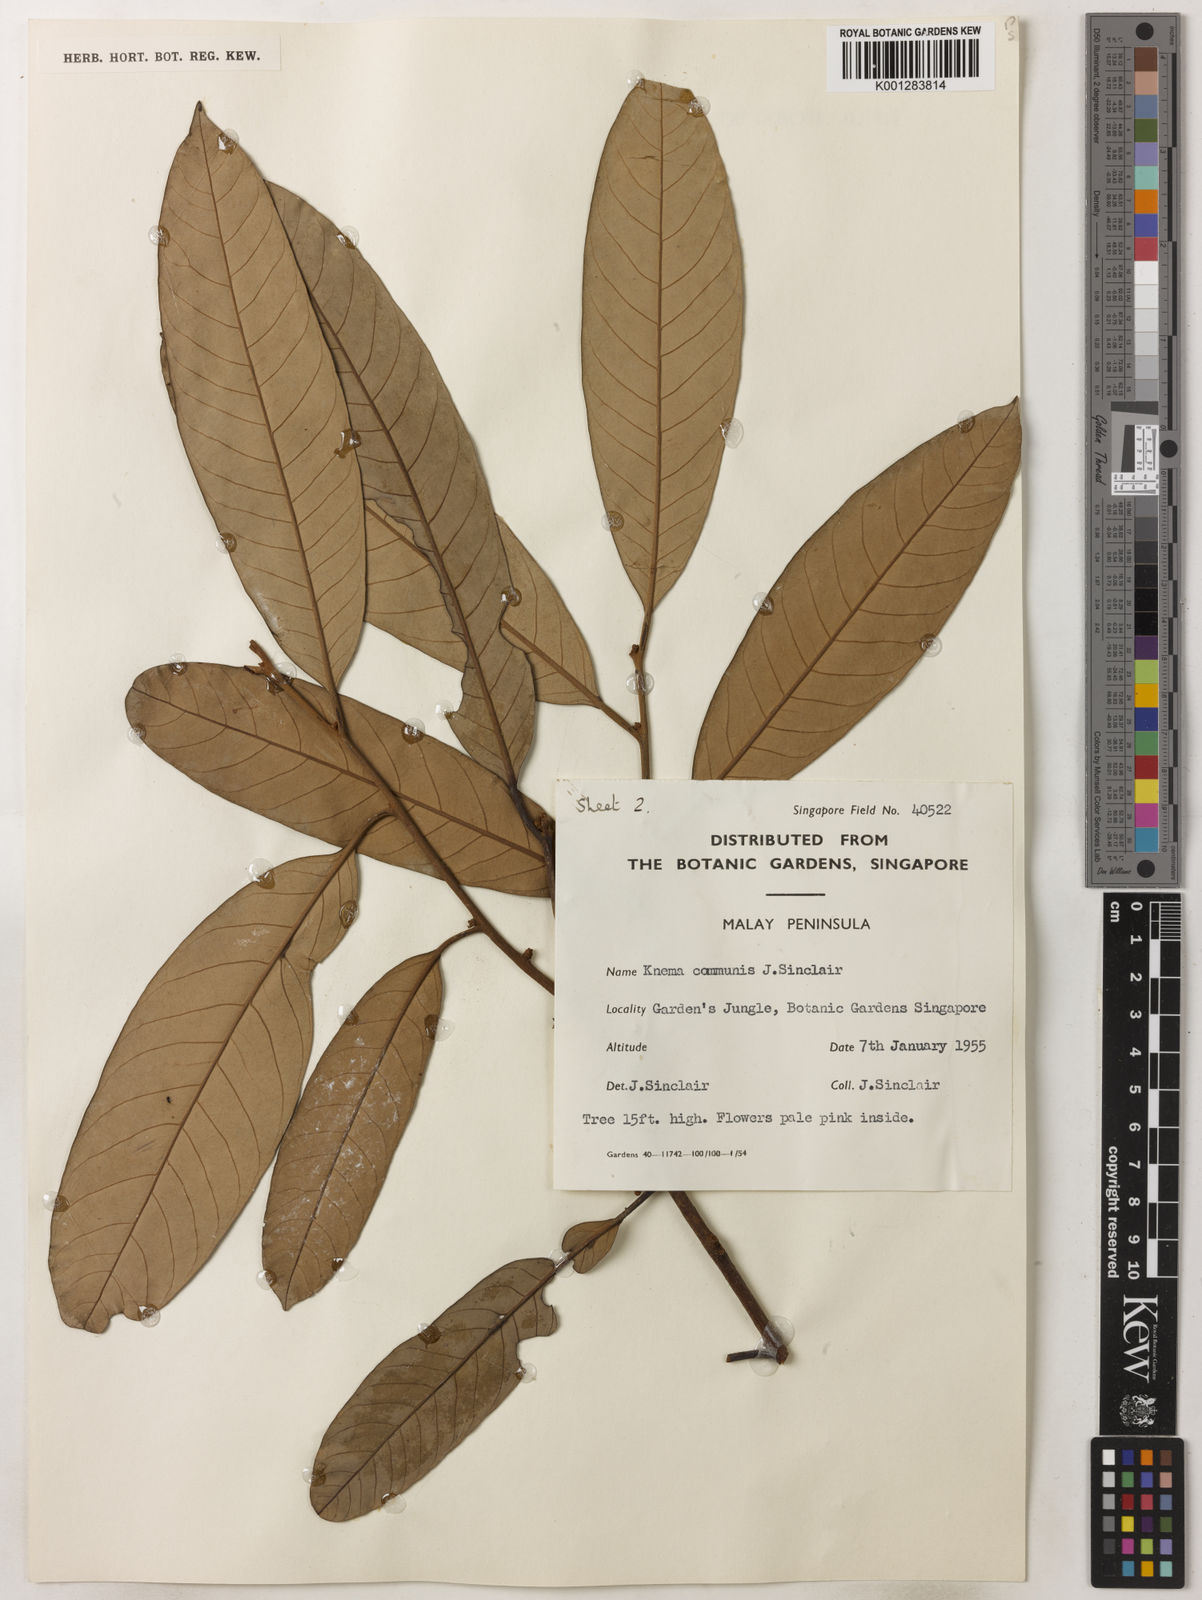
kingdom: Plantae
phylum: Tracheophyta
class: Magnoliopsida
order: Magnoliales
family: Myristicaceae
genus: Knema
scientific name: Knema communis
